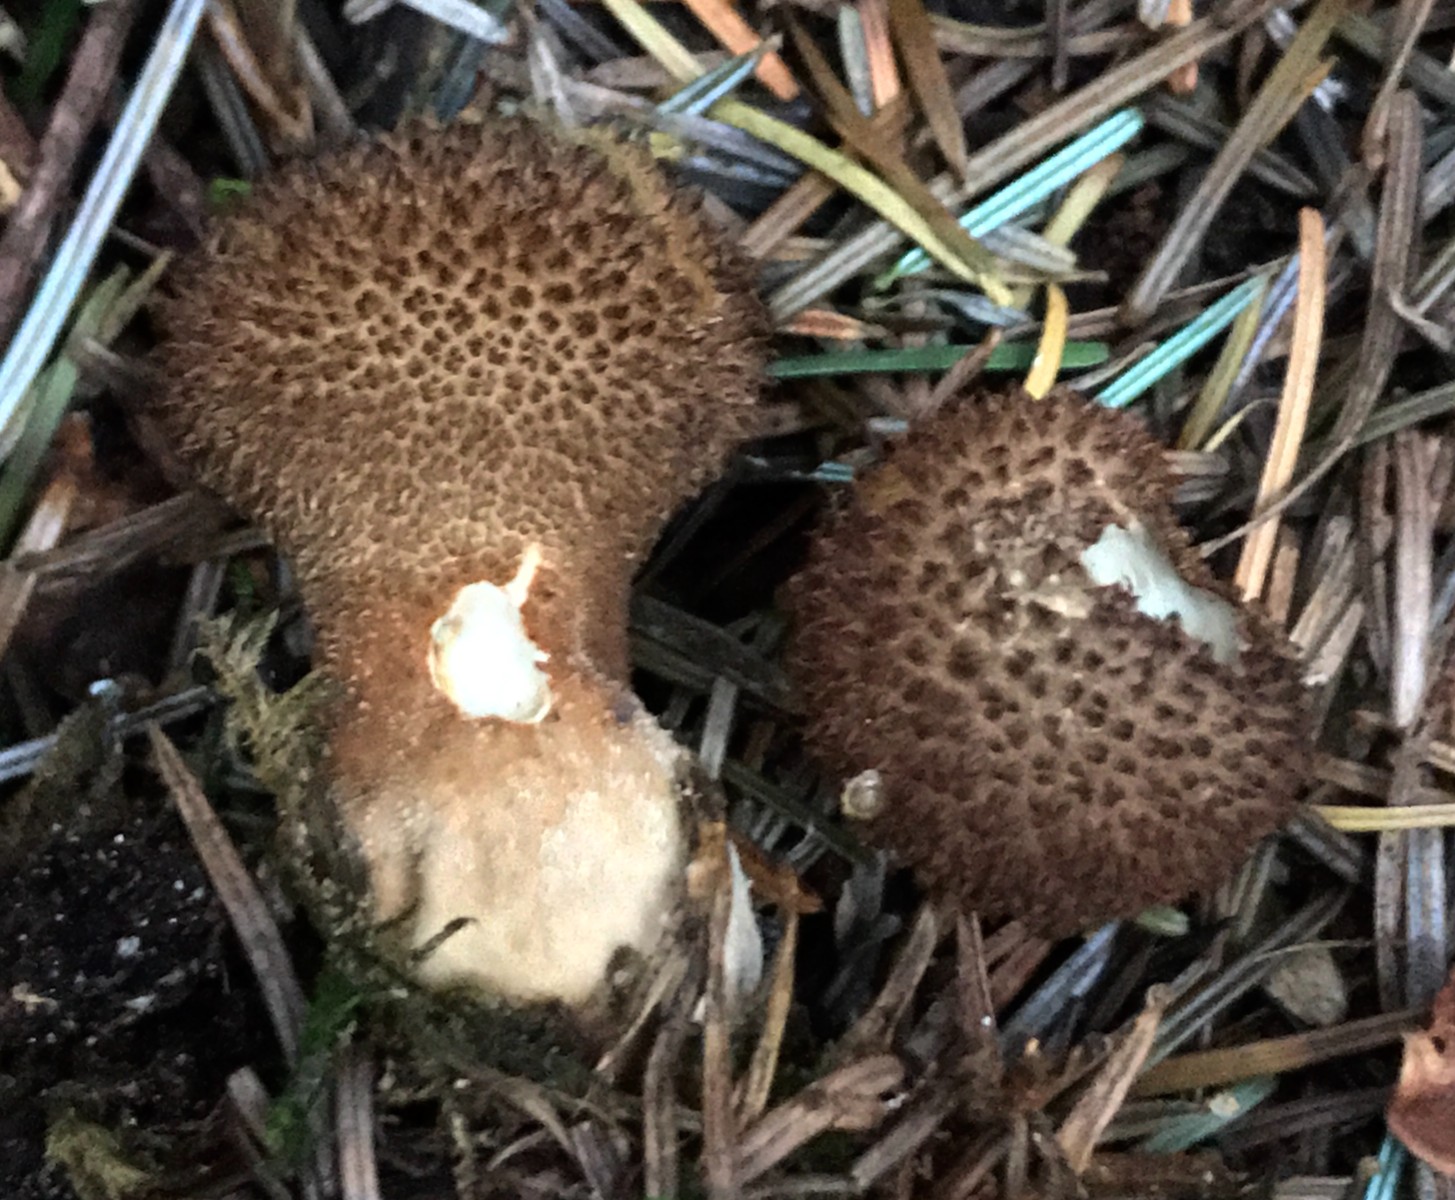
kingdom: Fungi
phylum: Basidiomycota
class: Agaricomycetes
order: Agaricales
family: Lycoperdaceae
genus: Lycoperdon
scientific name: Lycoperdon nigrescens
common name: sortagtig støvbold
